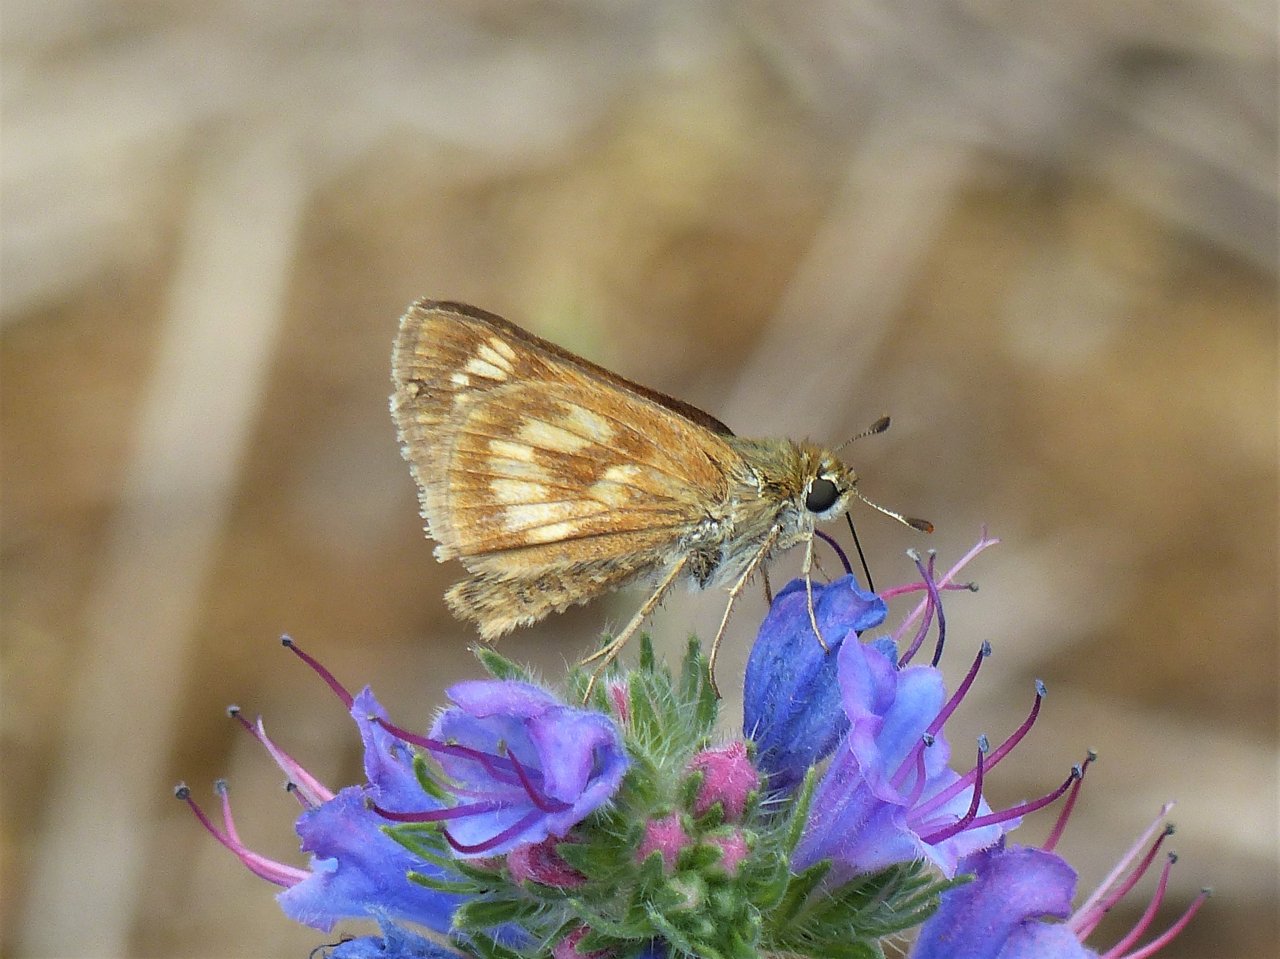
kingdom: Animalia
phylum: Arthropoda
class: Insecta
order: Lepidoptera
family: Hesperiidae
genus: Polites
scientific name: Polites
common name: Long Dash Skipper
